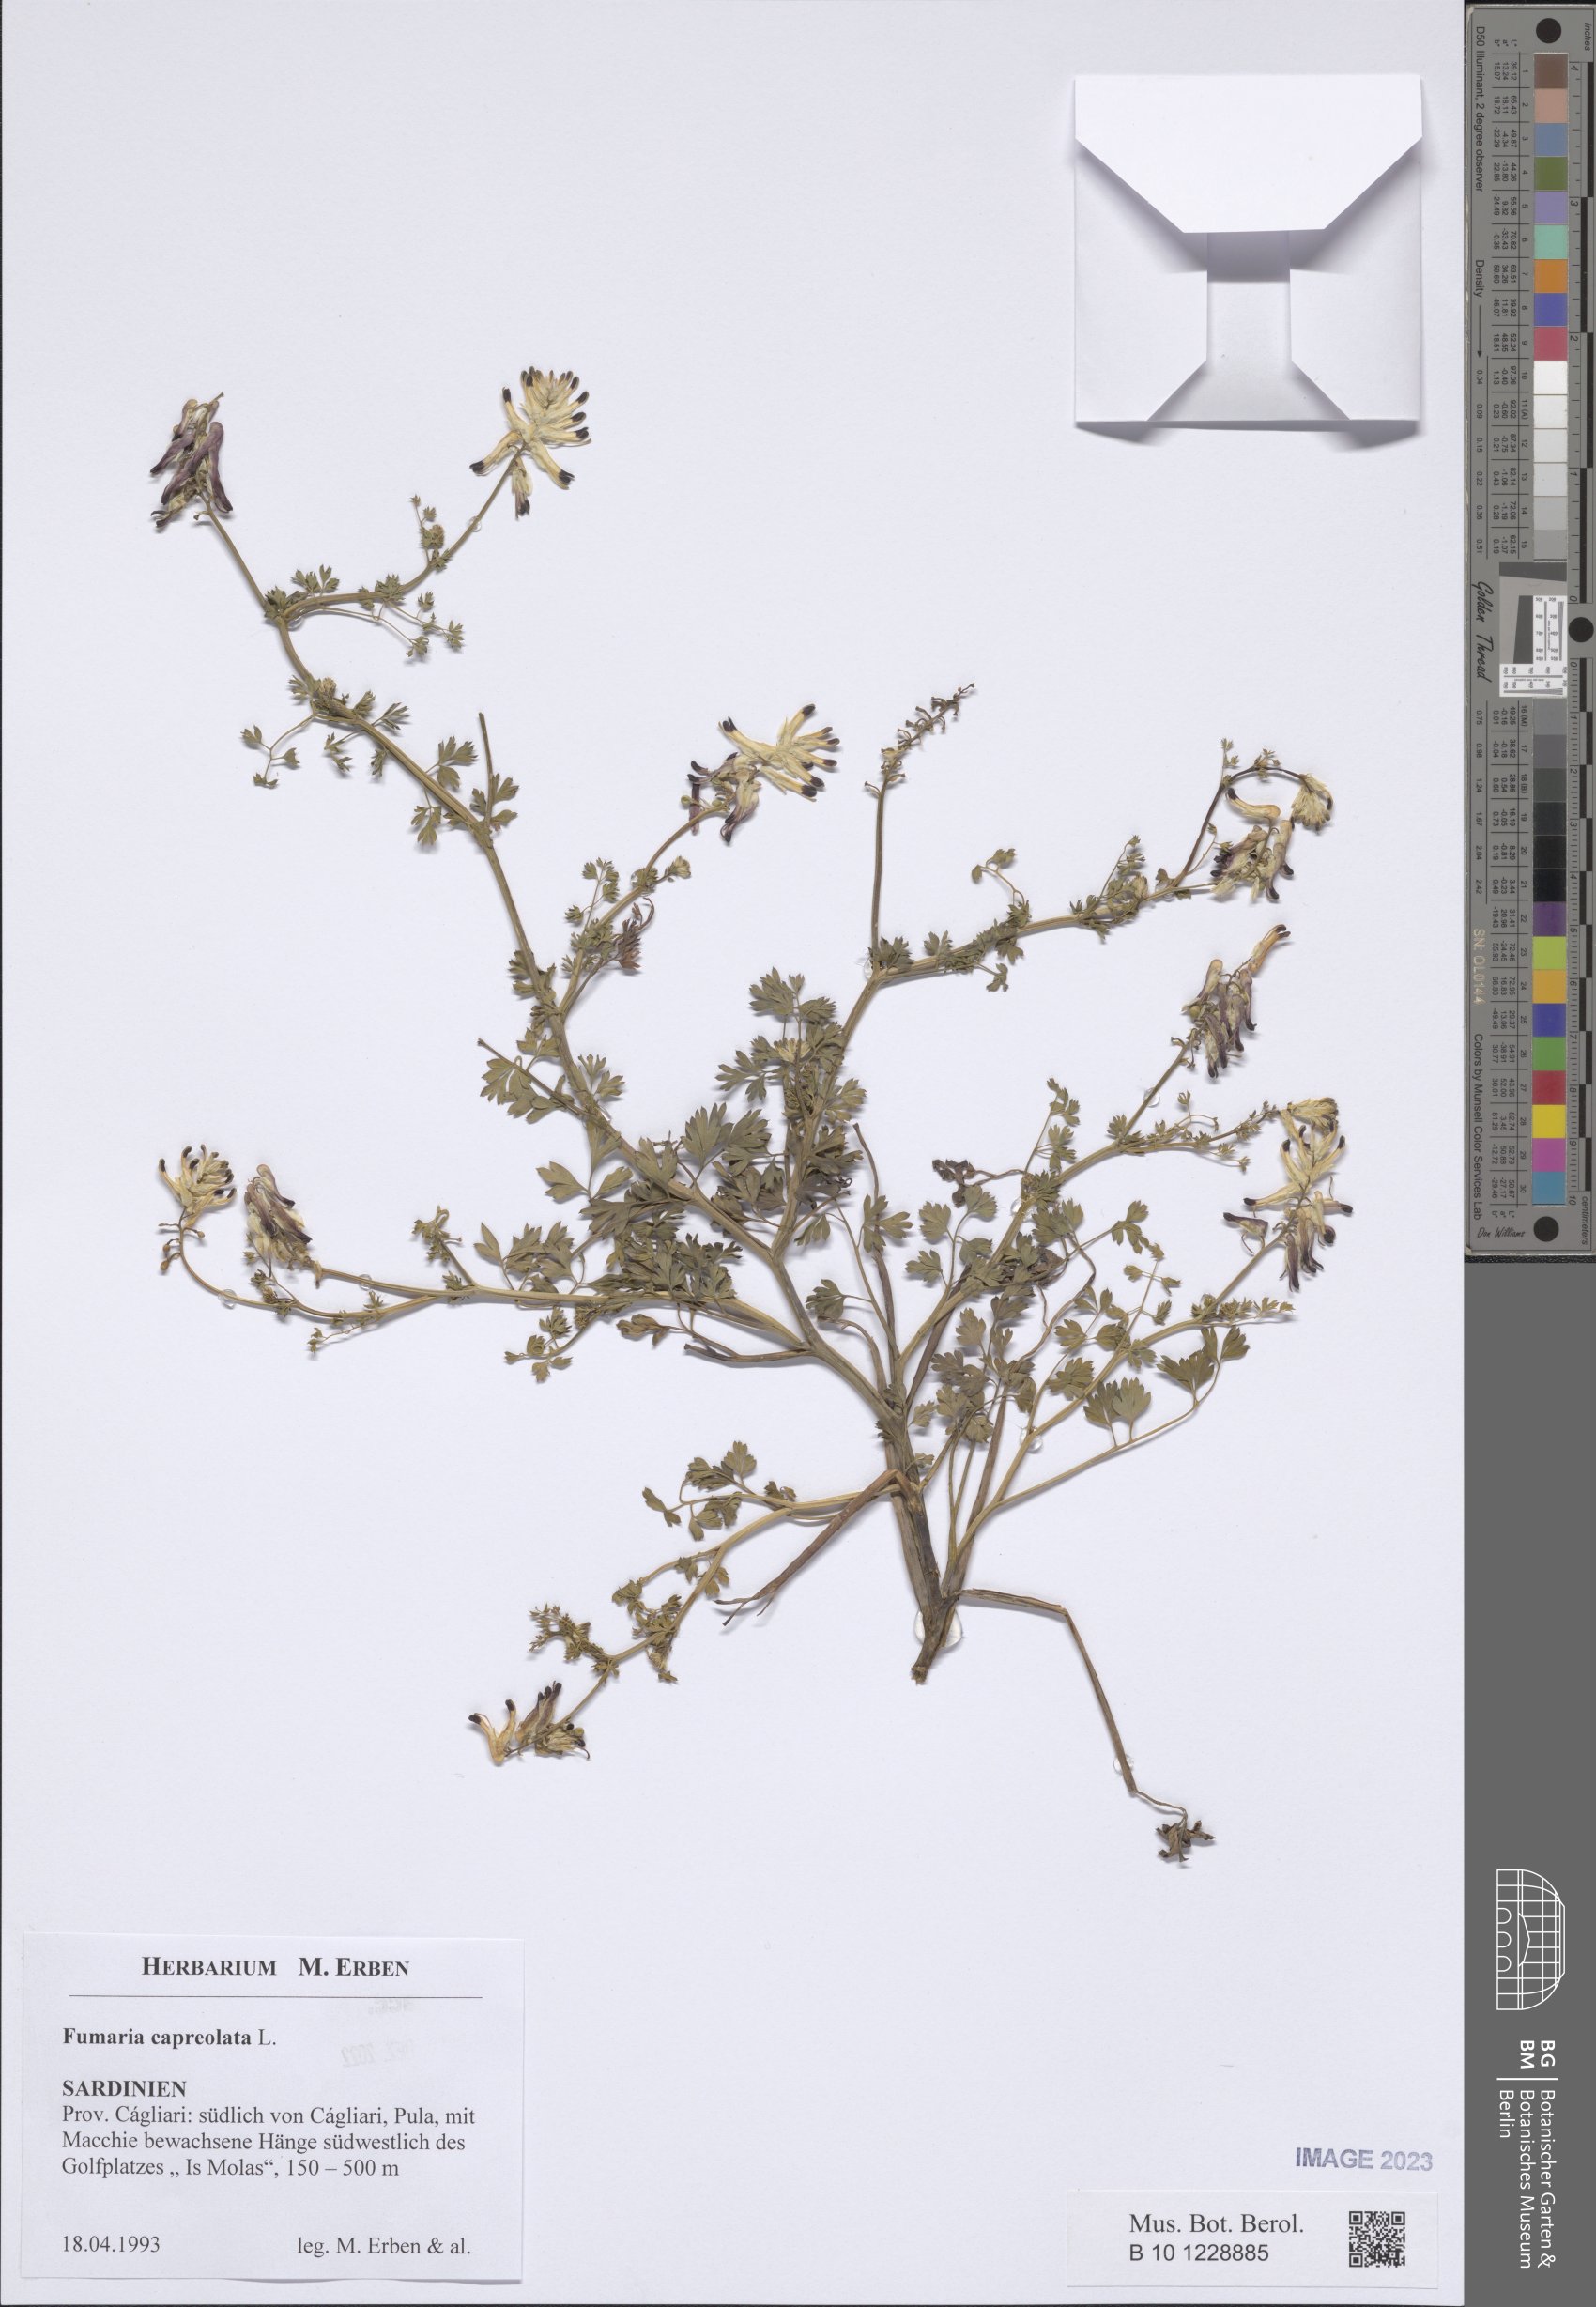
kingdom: Plantae
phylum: Tracheophyta
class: Magnoliopsida
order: Ranunculales
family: Papaveraceae
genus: Fumaria
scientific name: Fumaria capreolata
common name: White ramping-fumitory
